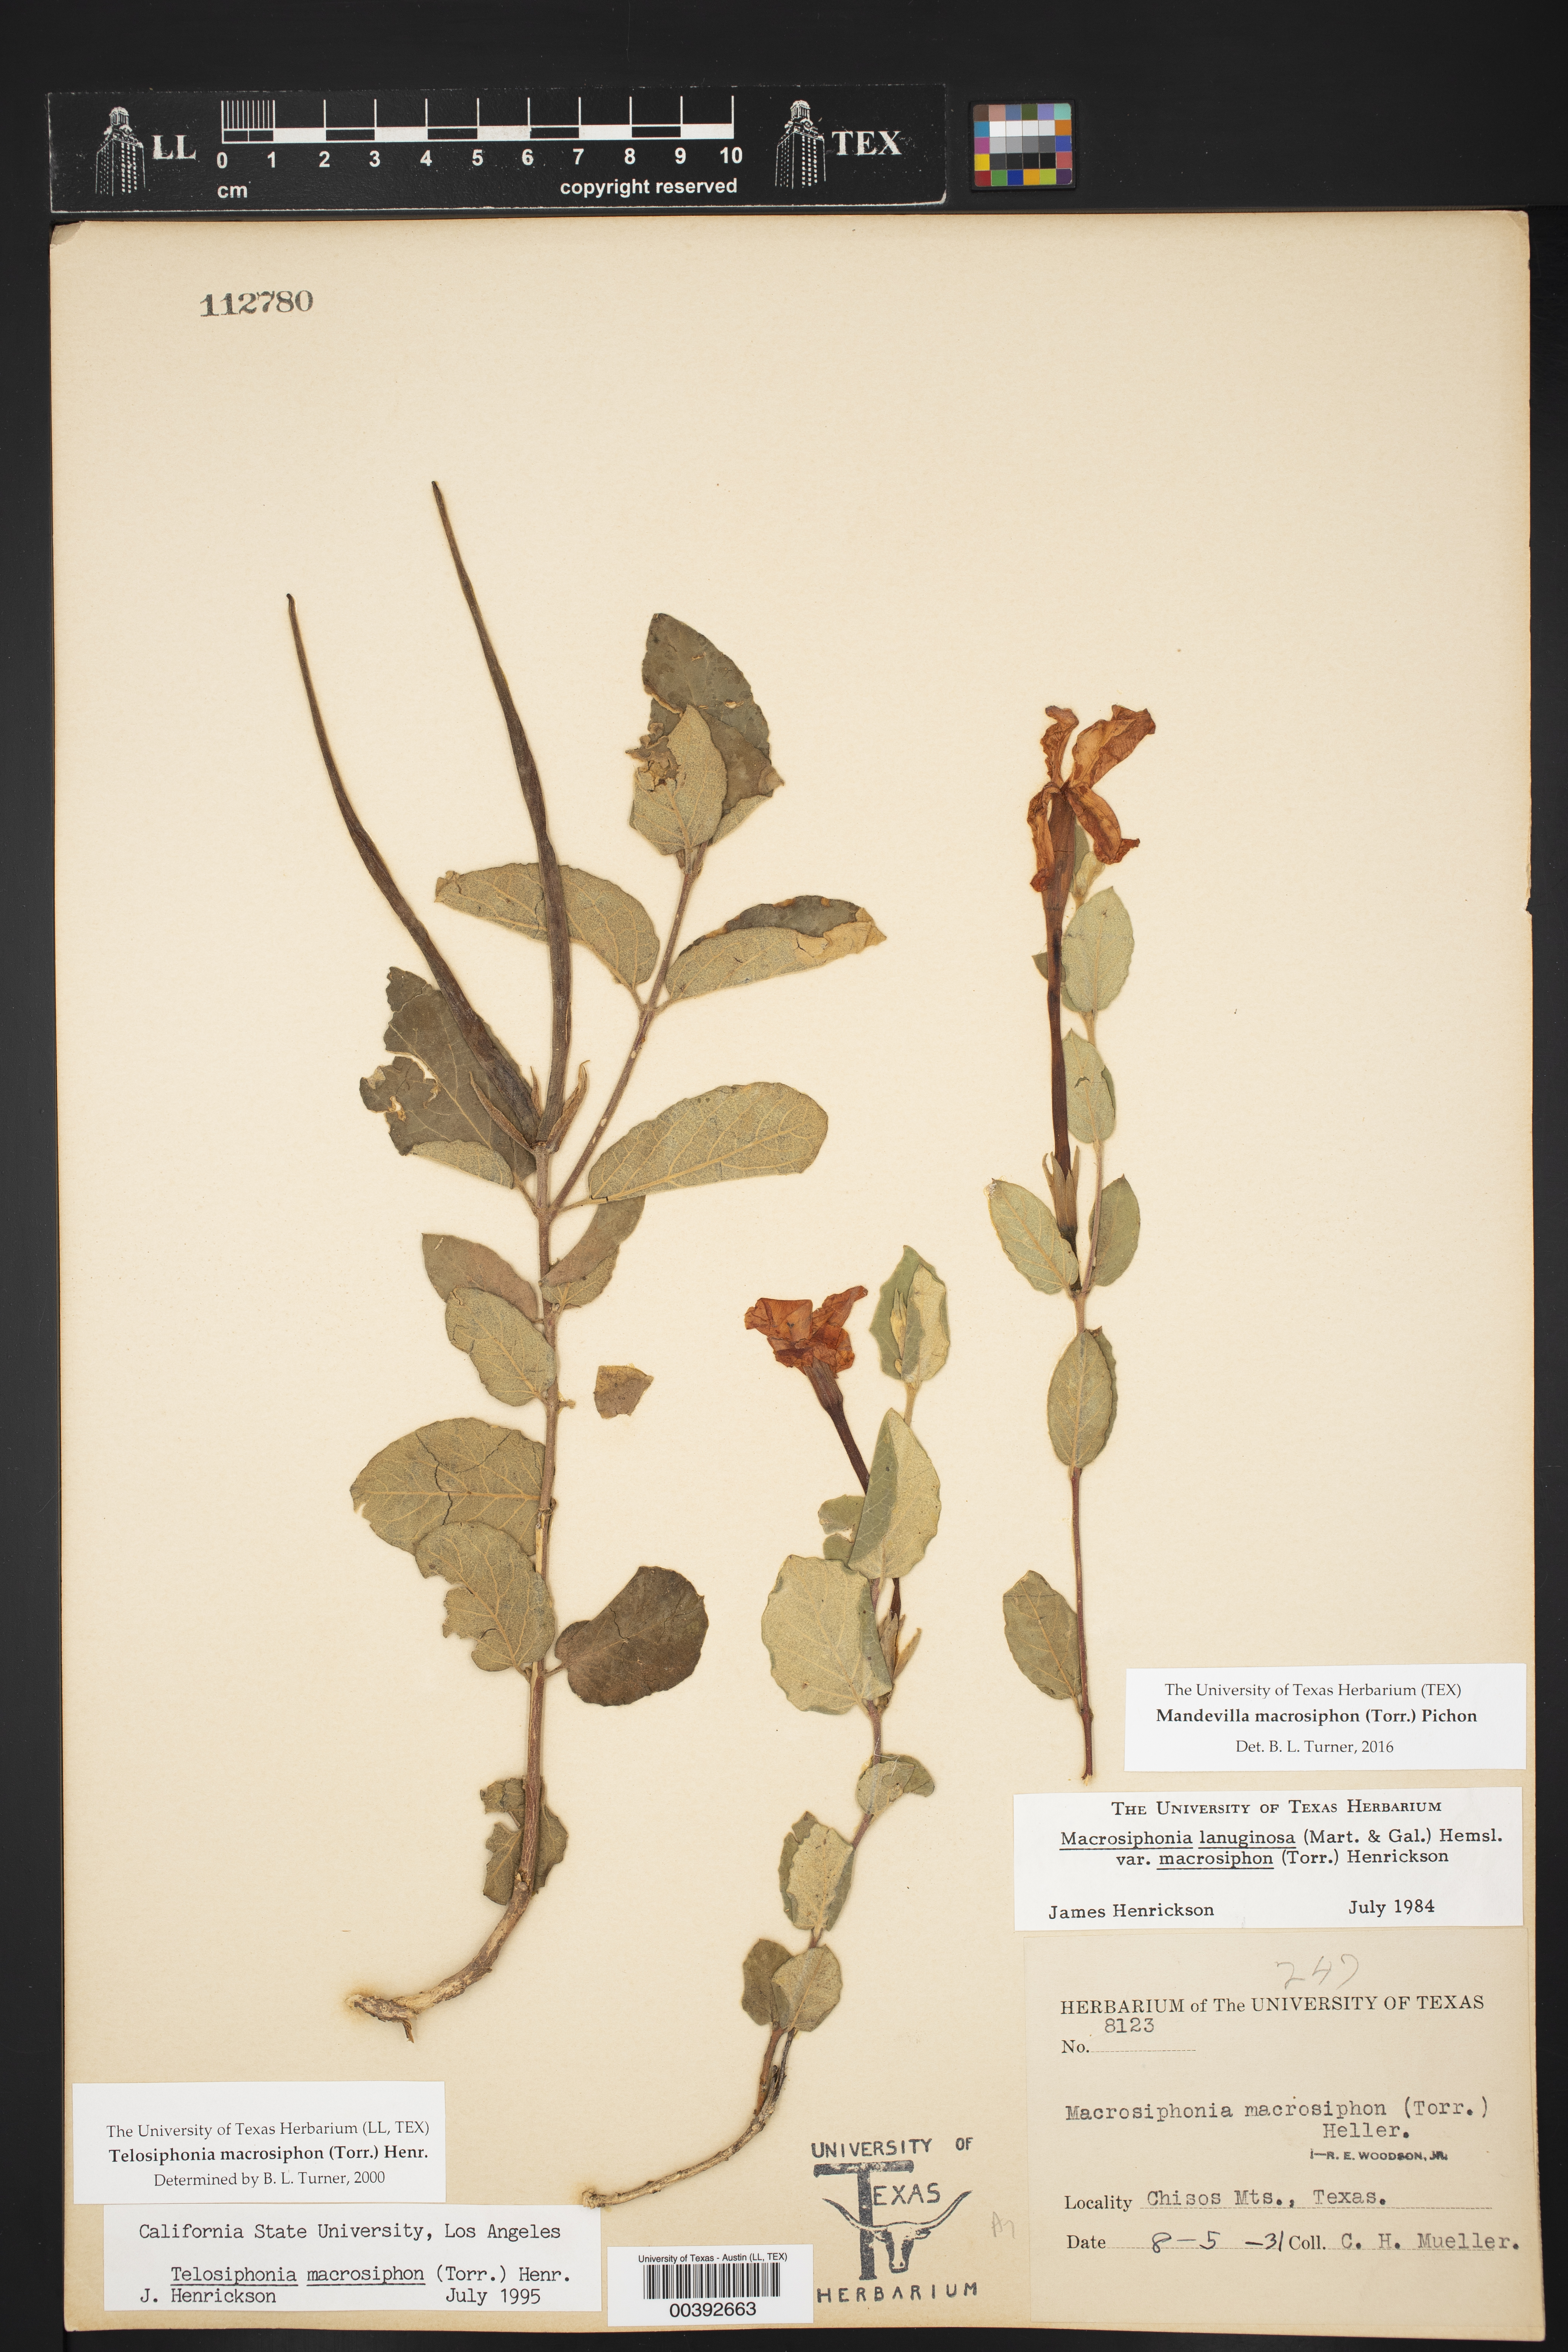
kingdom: Plantae
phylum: Tracheophyta
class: Magnoliopsida
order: Gentianales
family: Apocynaceae
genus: Mandevilla
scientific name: Mandevilla macrosiphon
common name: Plateau rocktrumpet
